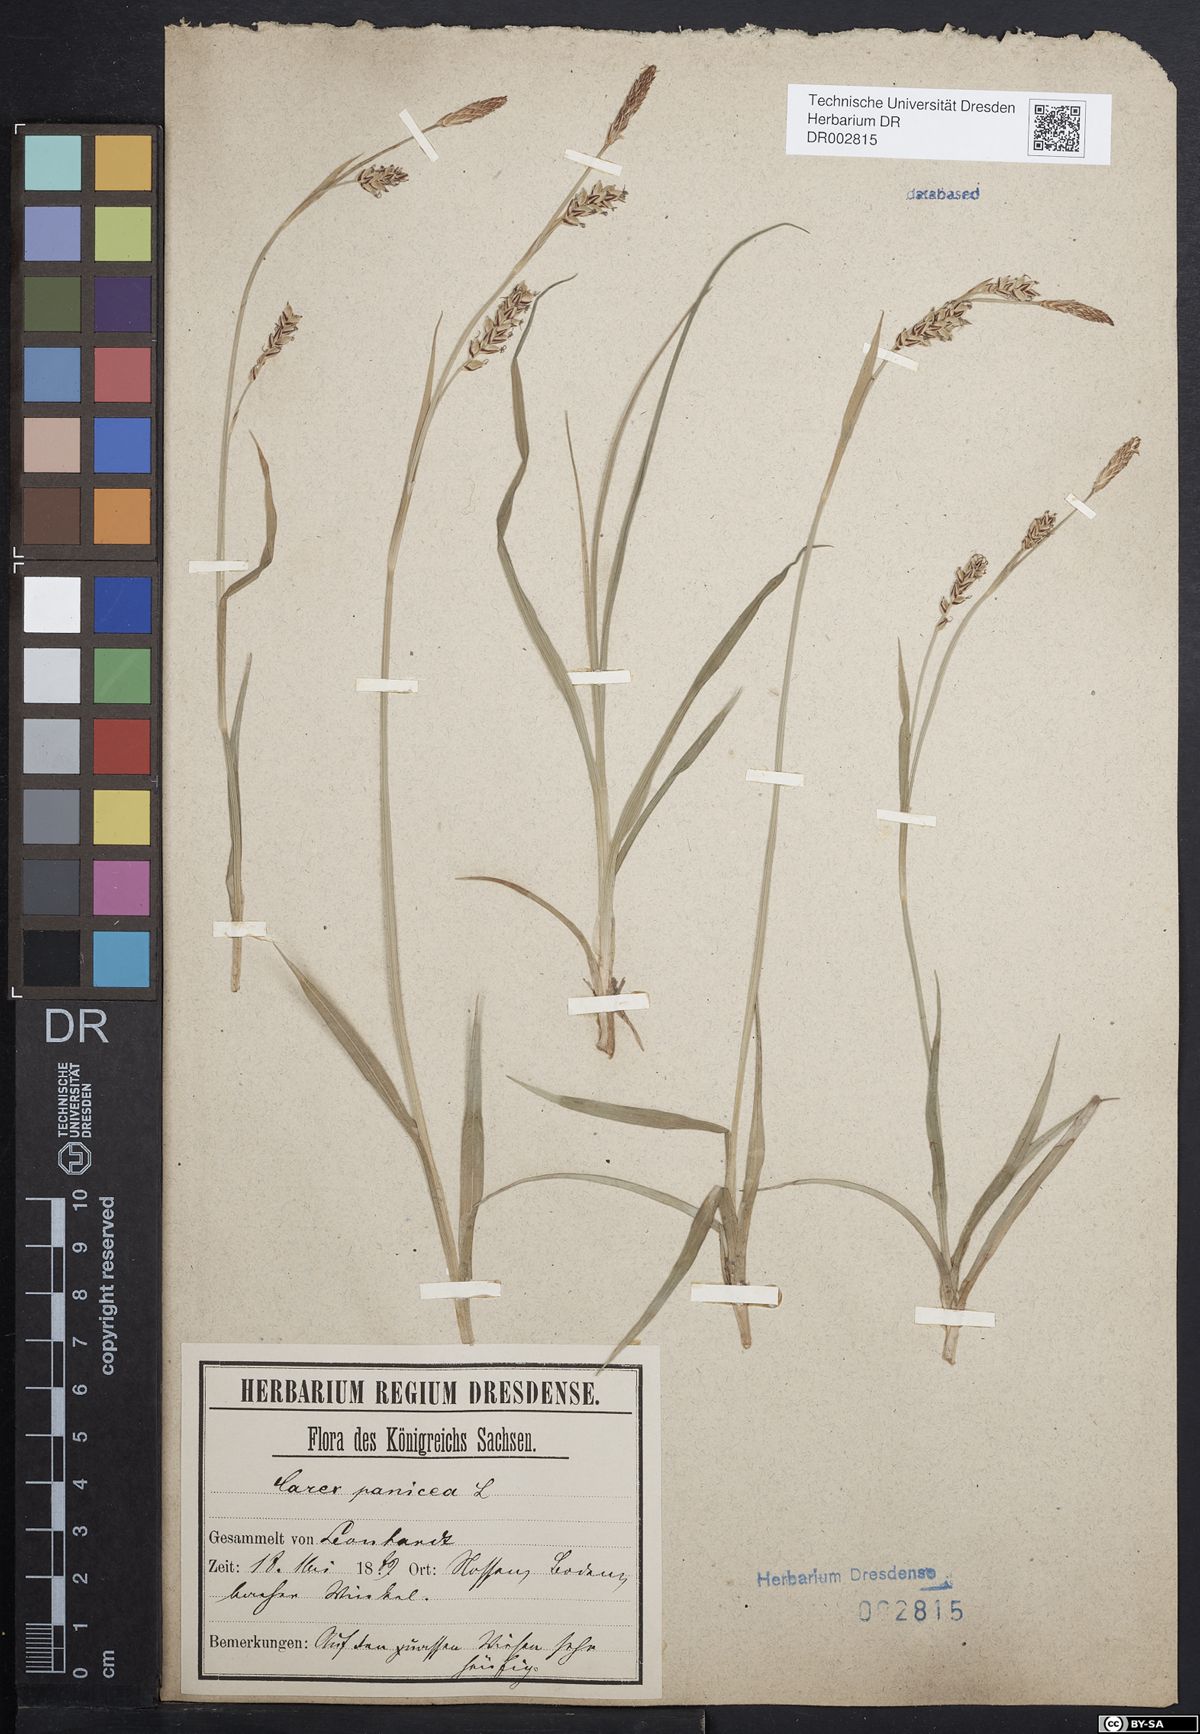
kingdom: Plantae
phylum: Tracheophyta
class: Liliopsida
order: Poales
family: Cyperaceae
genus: Carex
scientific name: Carex panicea
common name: Carnation sedge
